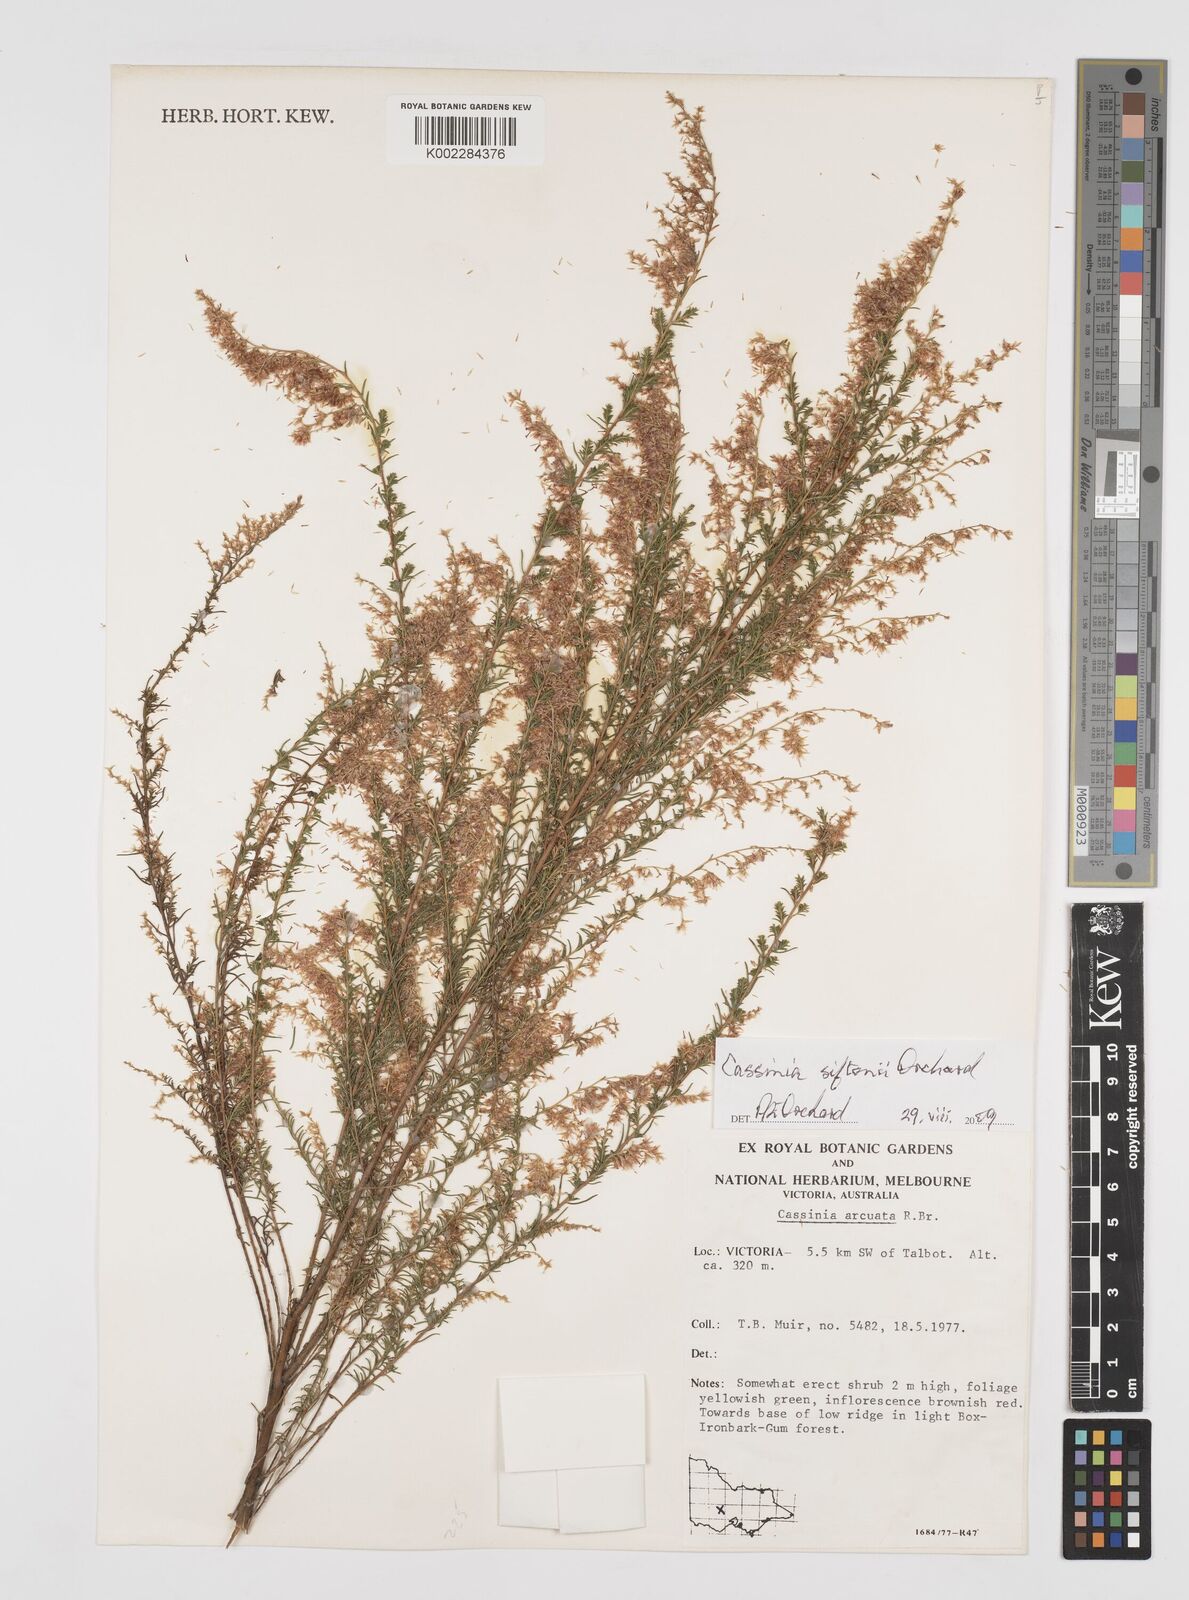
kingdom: Plantae
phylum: Tracheophyta
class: Magnoliopsida
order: Asterales
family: Asteraceae
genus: Cassinia
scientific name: Cassinia arcuata
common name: Chineseshrub
